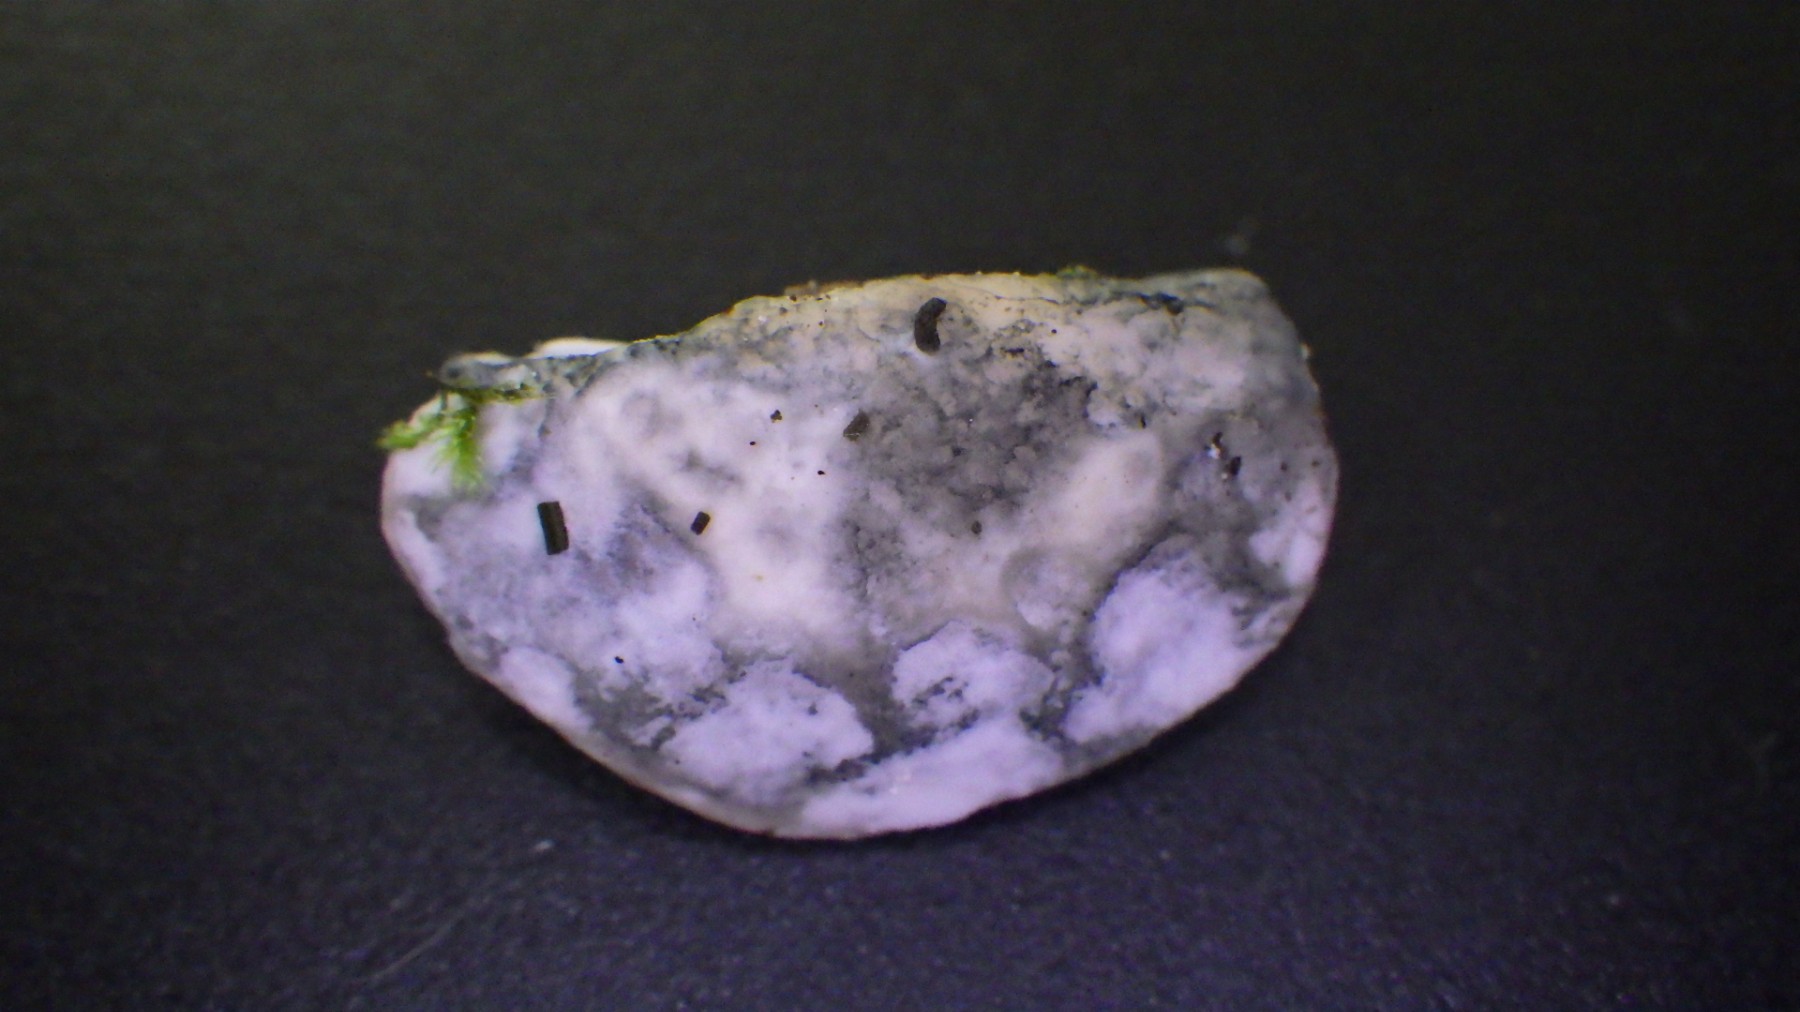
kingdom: Fungi
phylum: Basidiomycota
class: Agaricomycetes
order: Polyporales
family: Polyporaceae
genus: Cyanosporus
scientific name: Cyanosporus alni
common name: blegblå kødporesvamp
